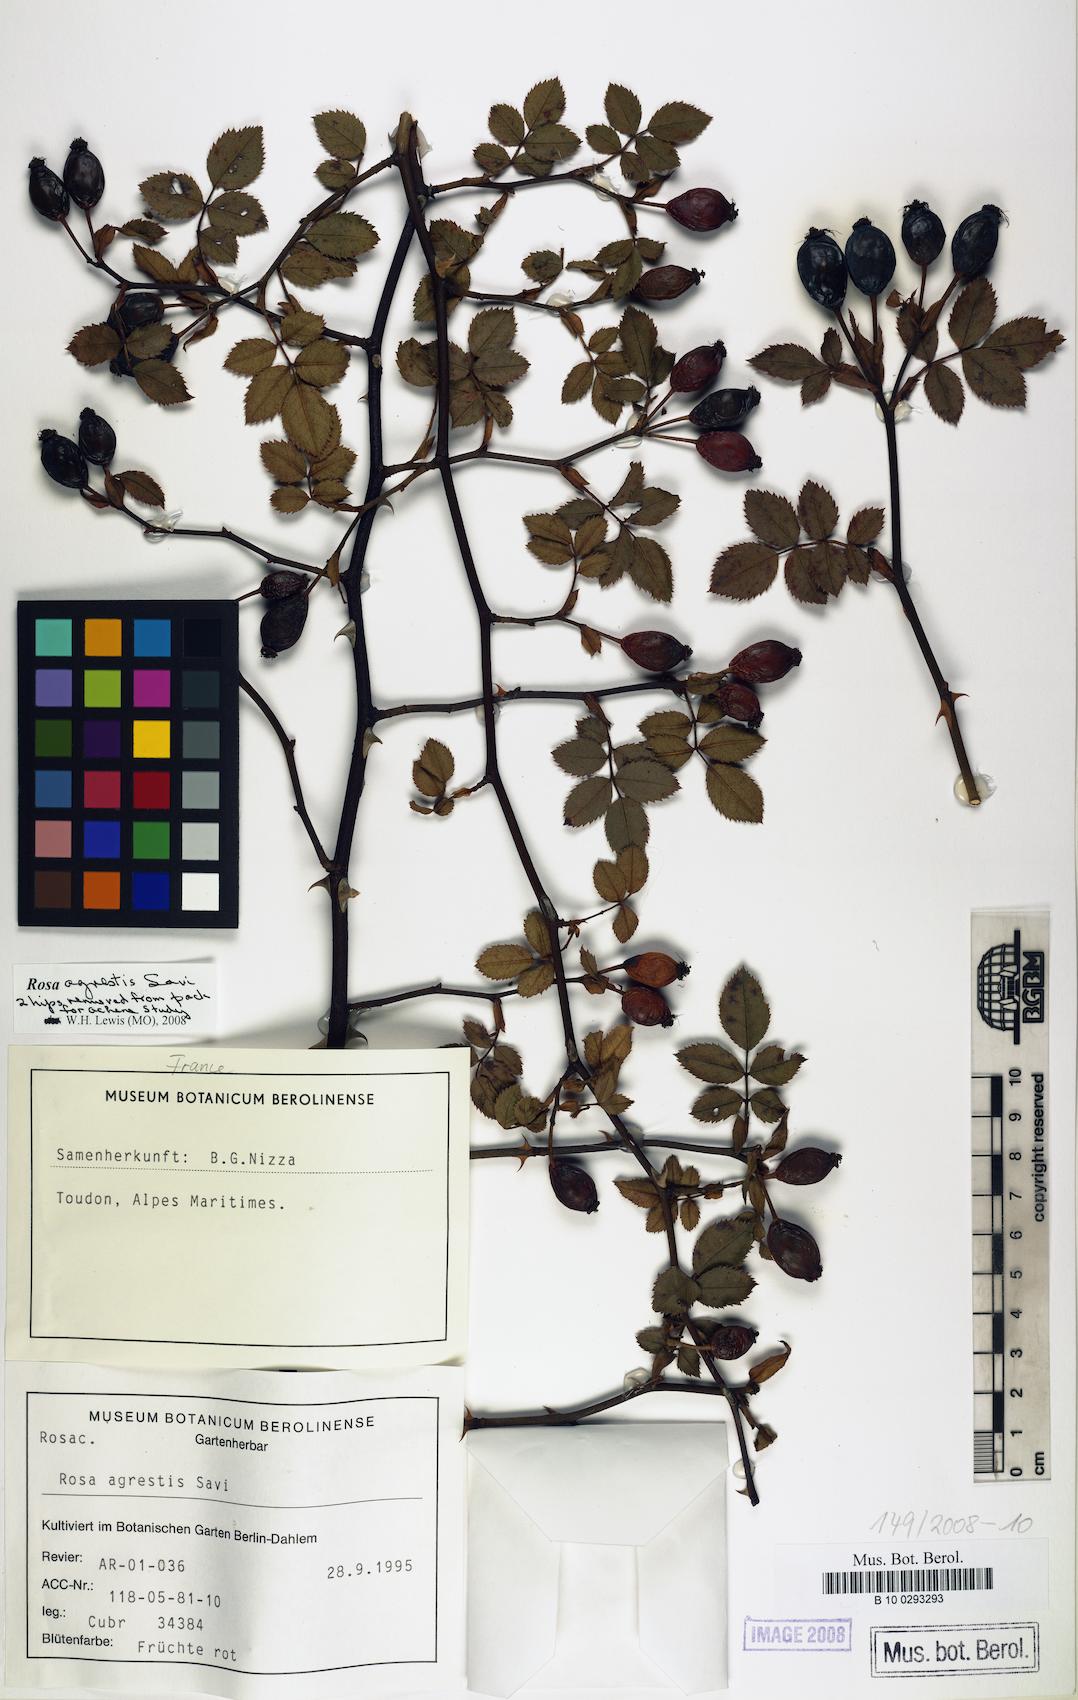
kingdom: Plantae
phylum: Tracheophyta
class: Magnoliopsida
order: Rosales
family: Rosaceae
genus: Rosa
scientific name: Rosa agrestis
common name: Fieldbriar
